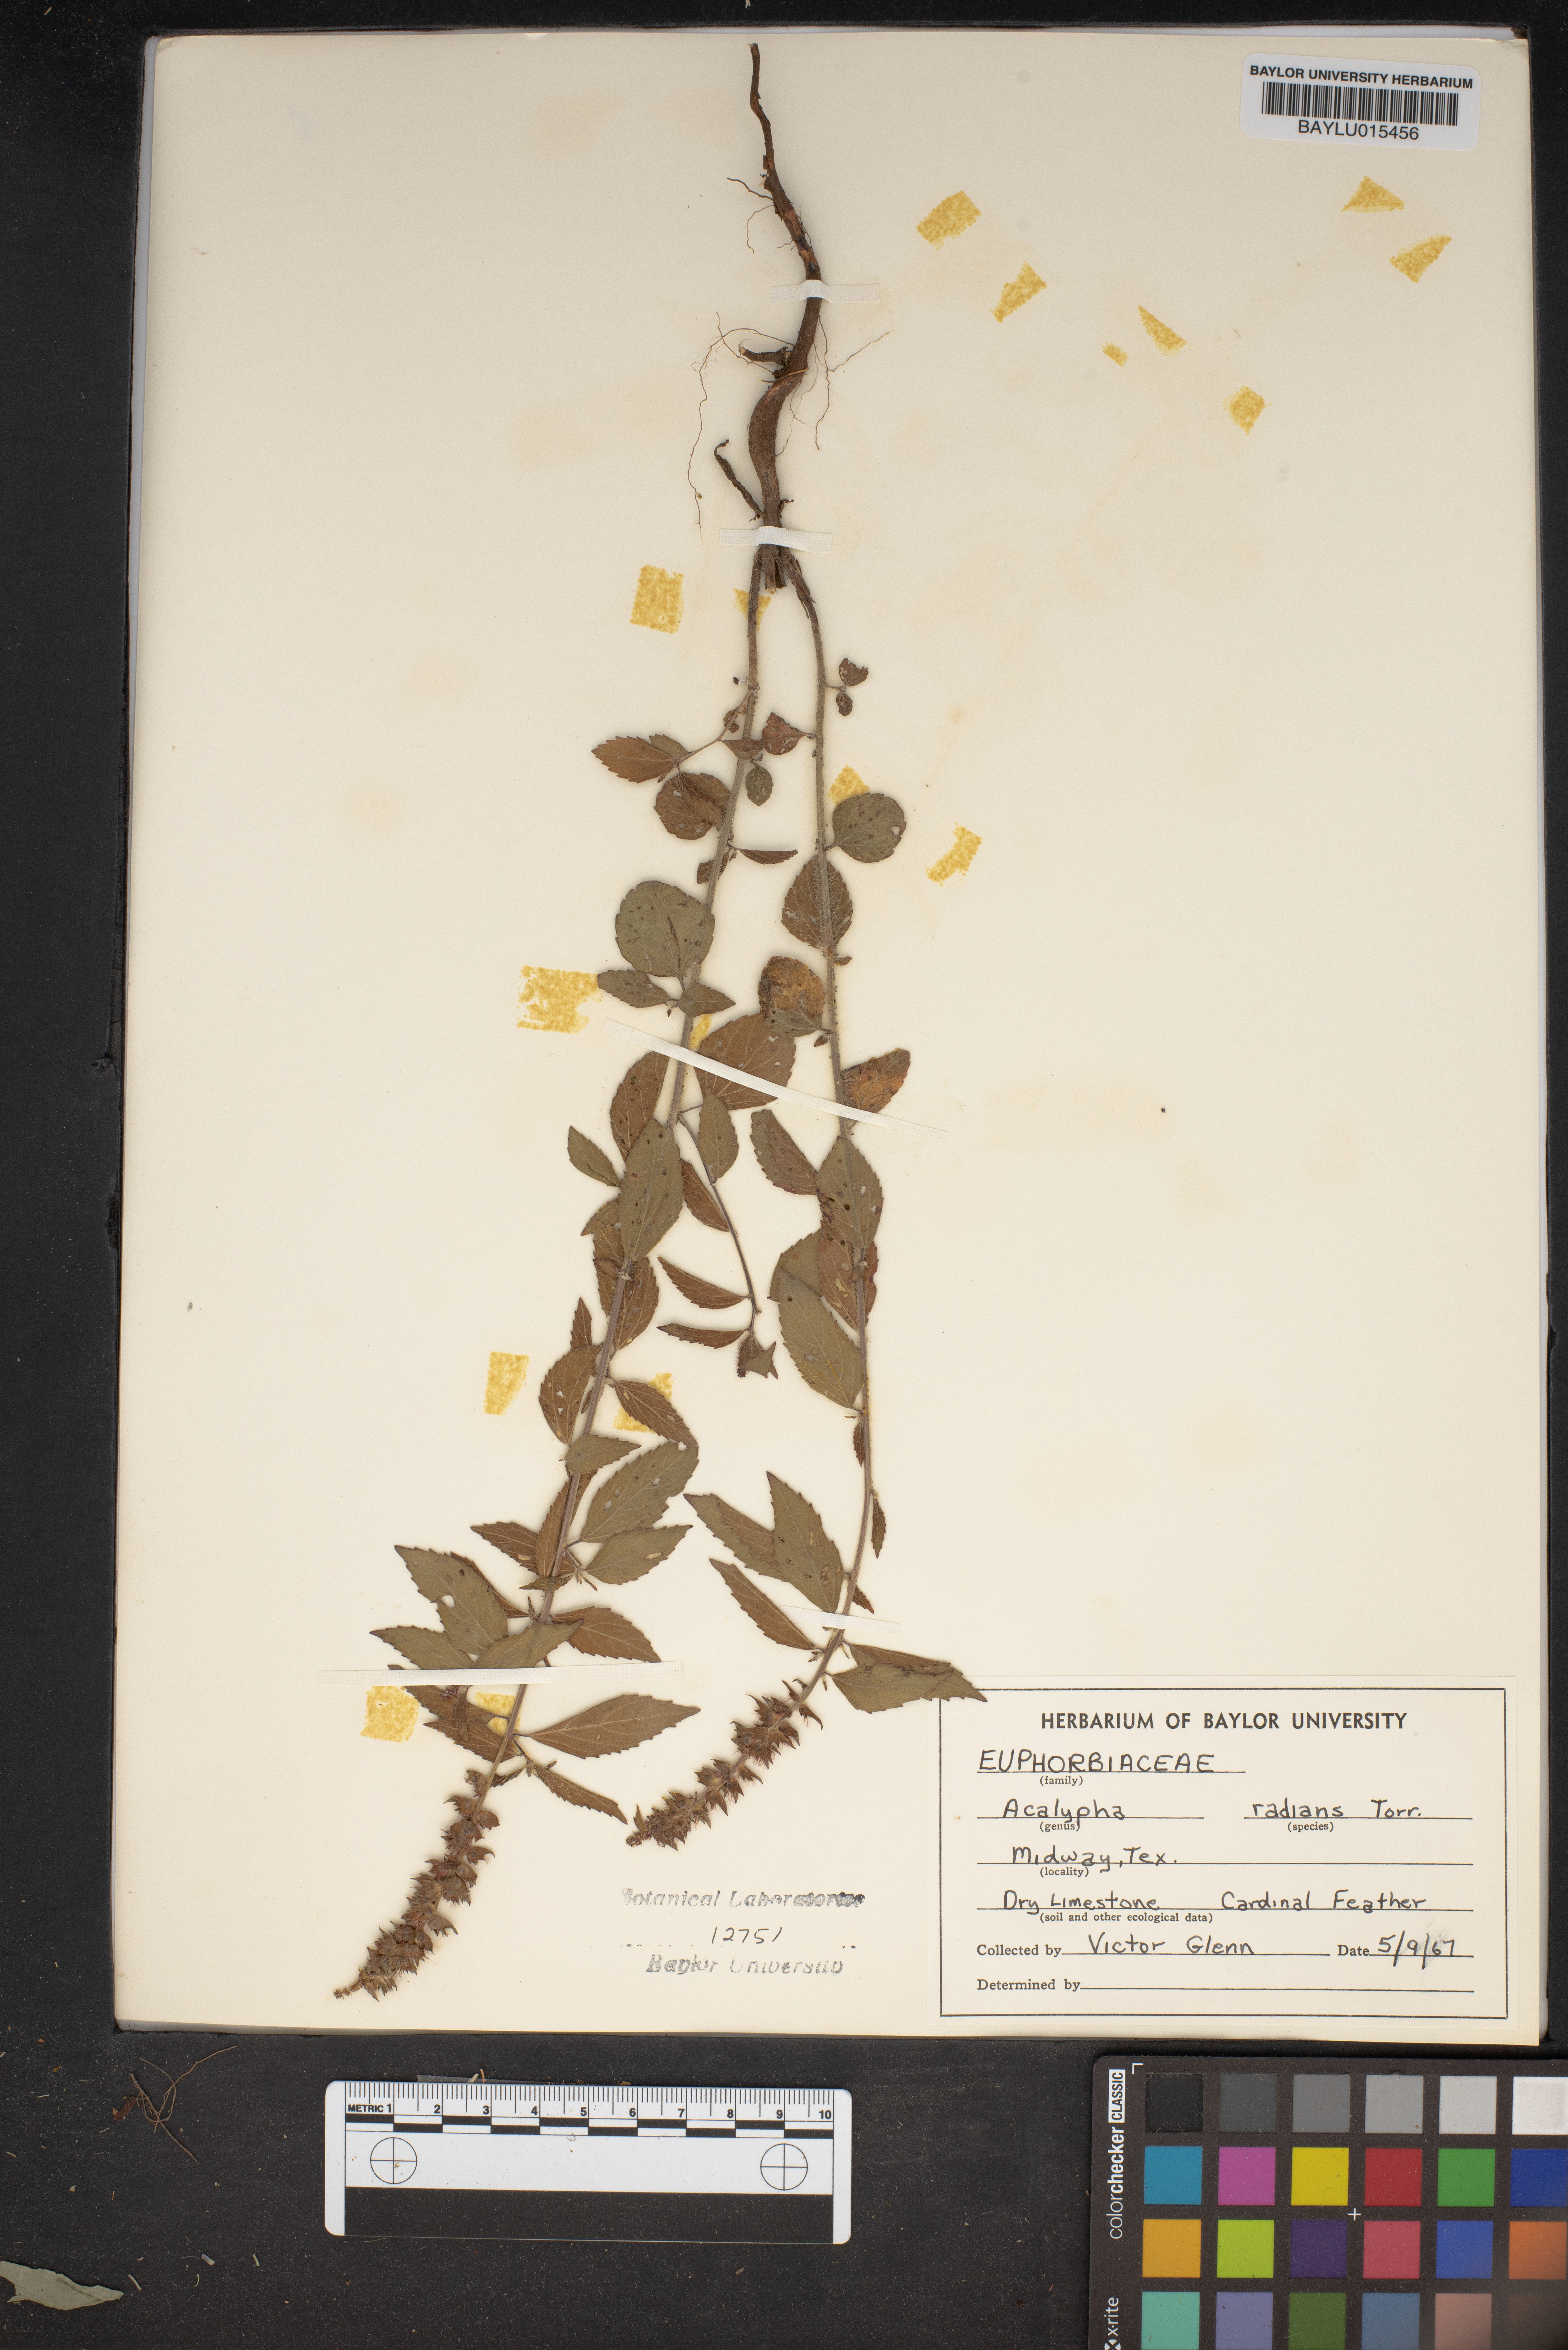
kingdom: Plantae
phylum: Tracheophyta
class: Magnoliopsida
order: Malpighiales
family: Euphorbiaceae
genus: Acalypha
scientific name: Acalypha radians
